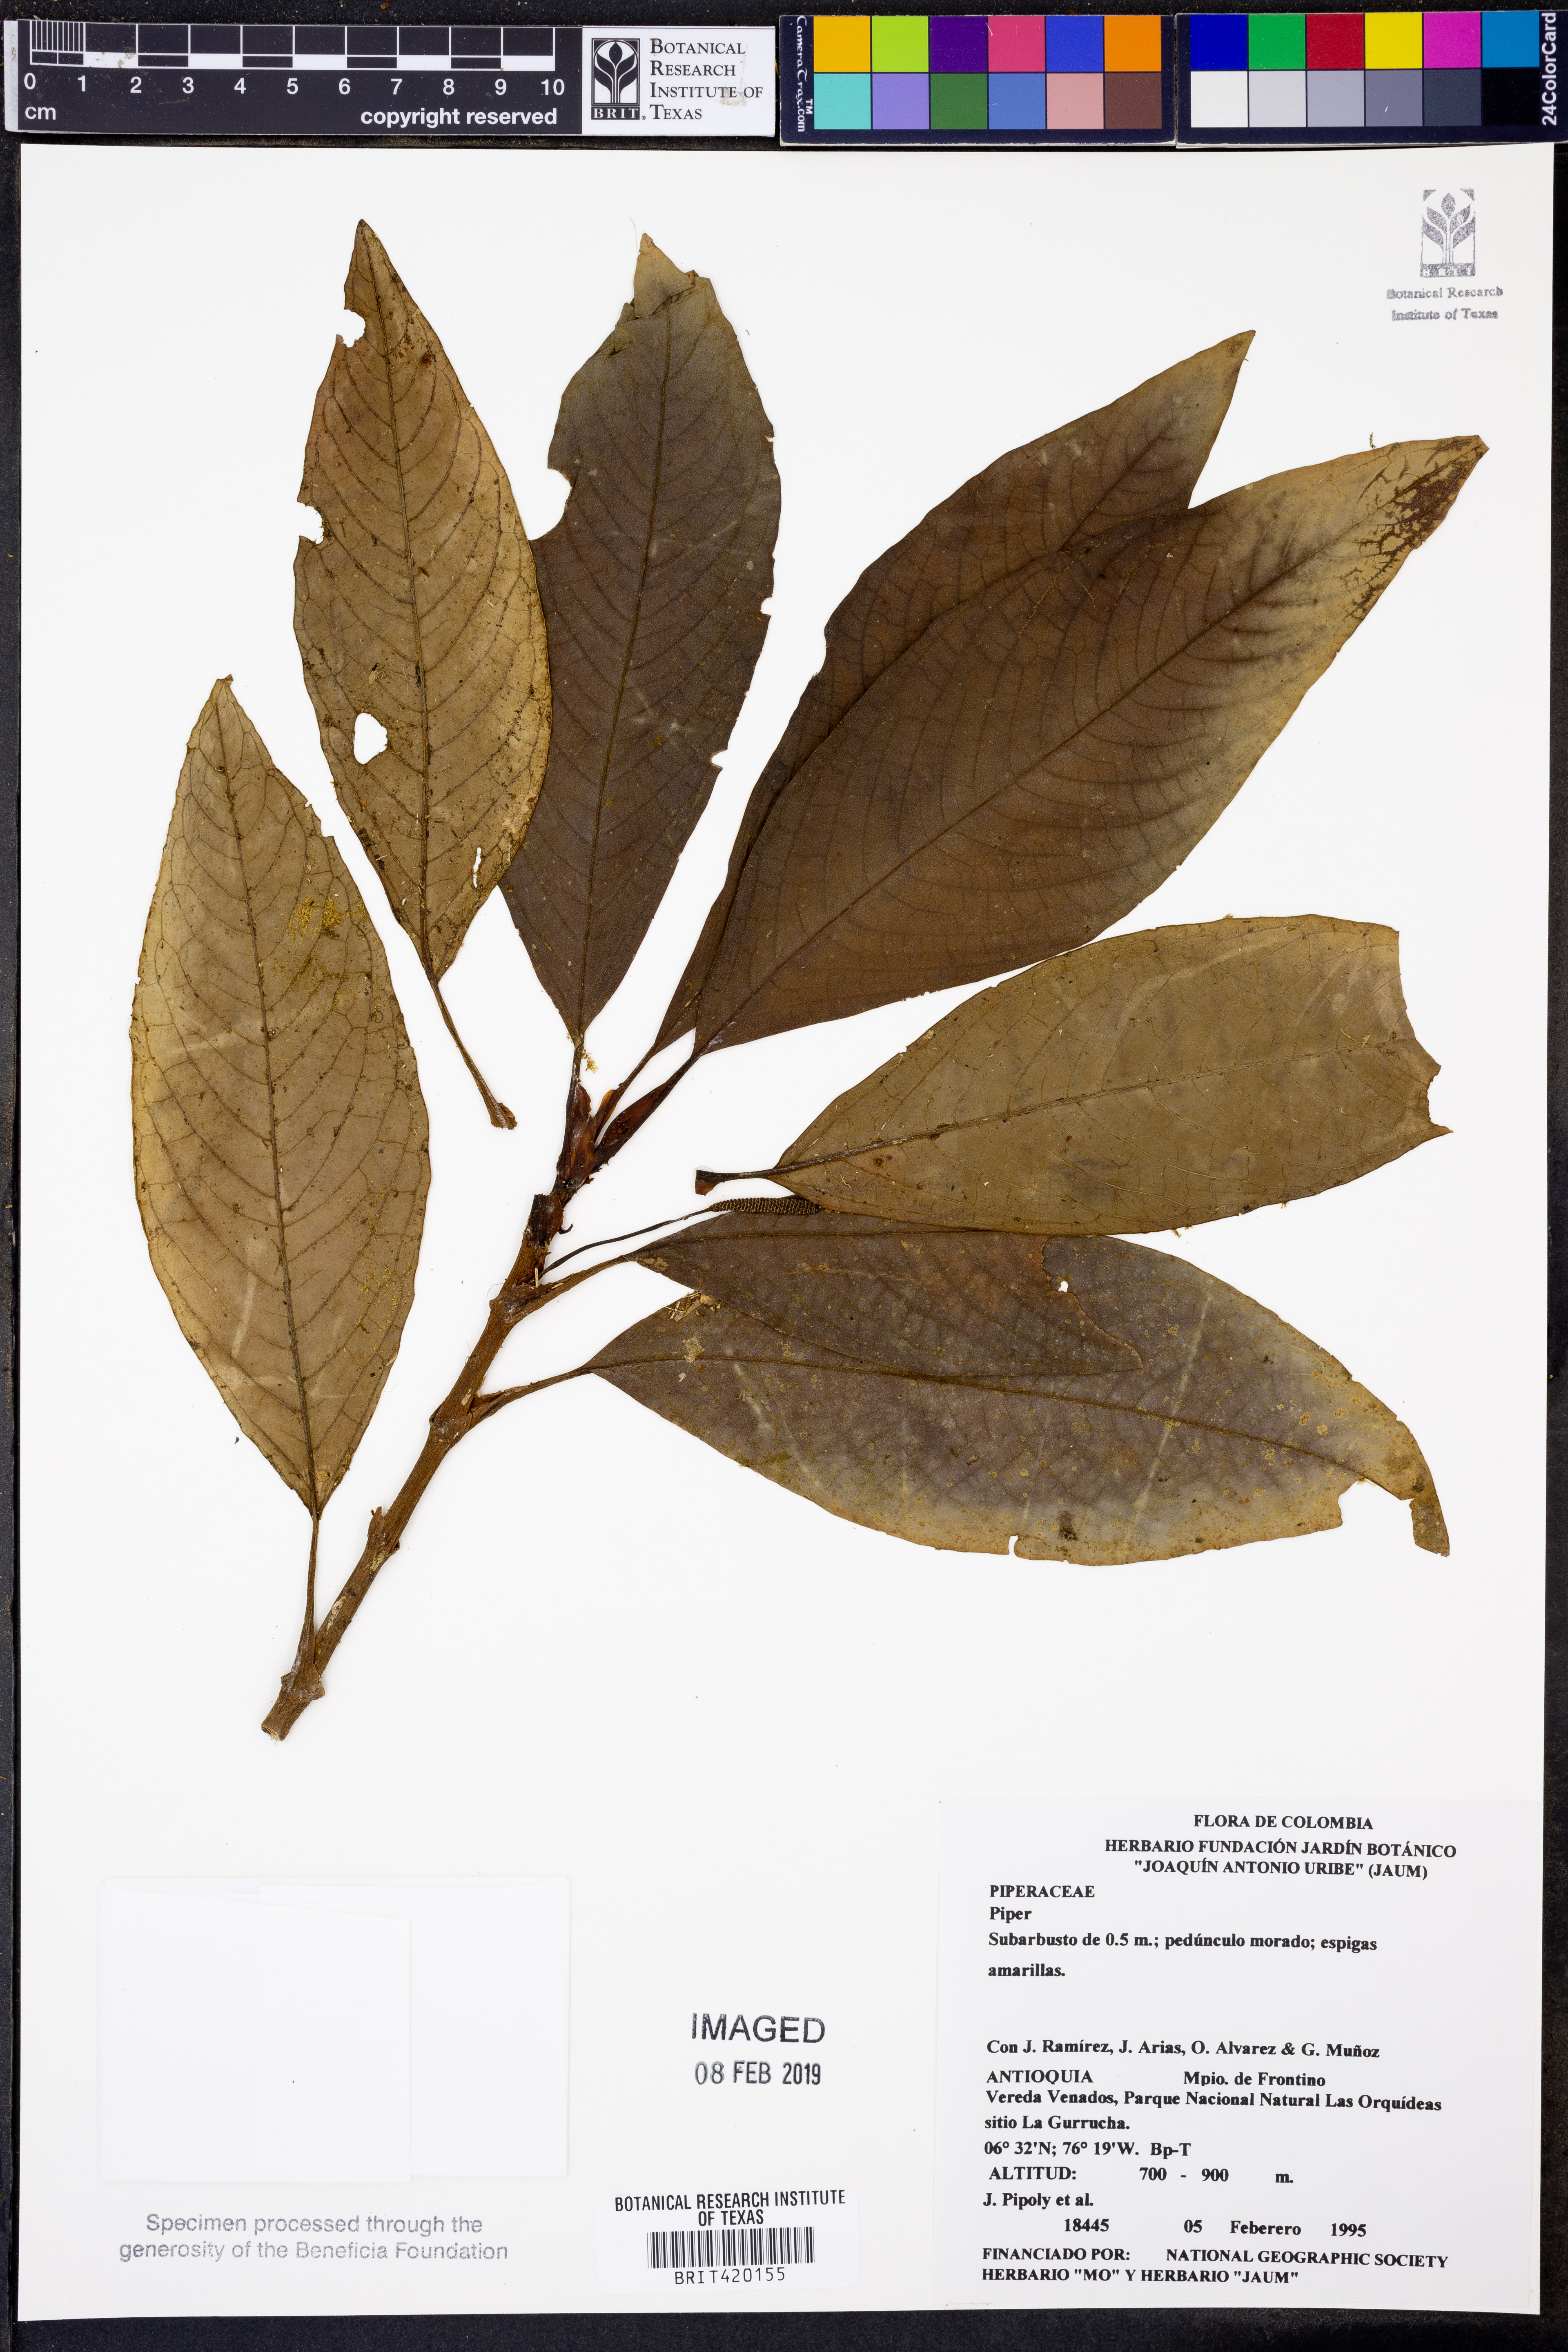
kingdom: Plantae
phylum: Tracheophyta
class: Magnoliopsida
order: Piperales
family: Piperaceae
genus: Piper
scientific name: Piper
